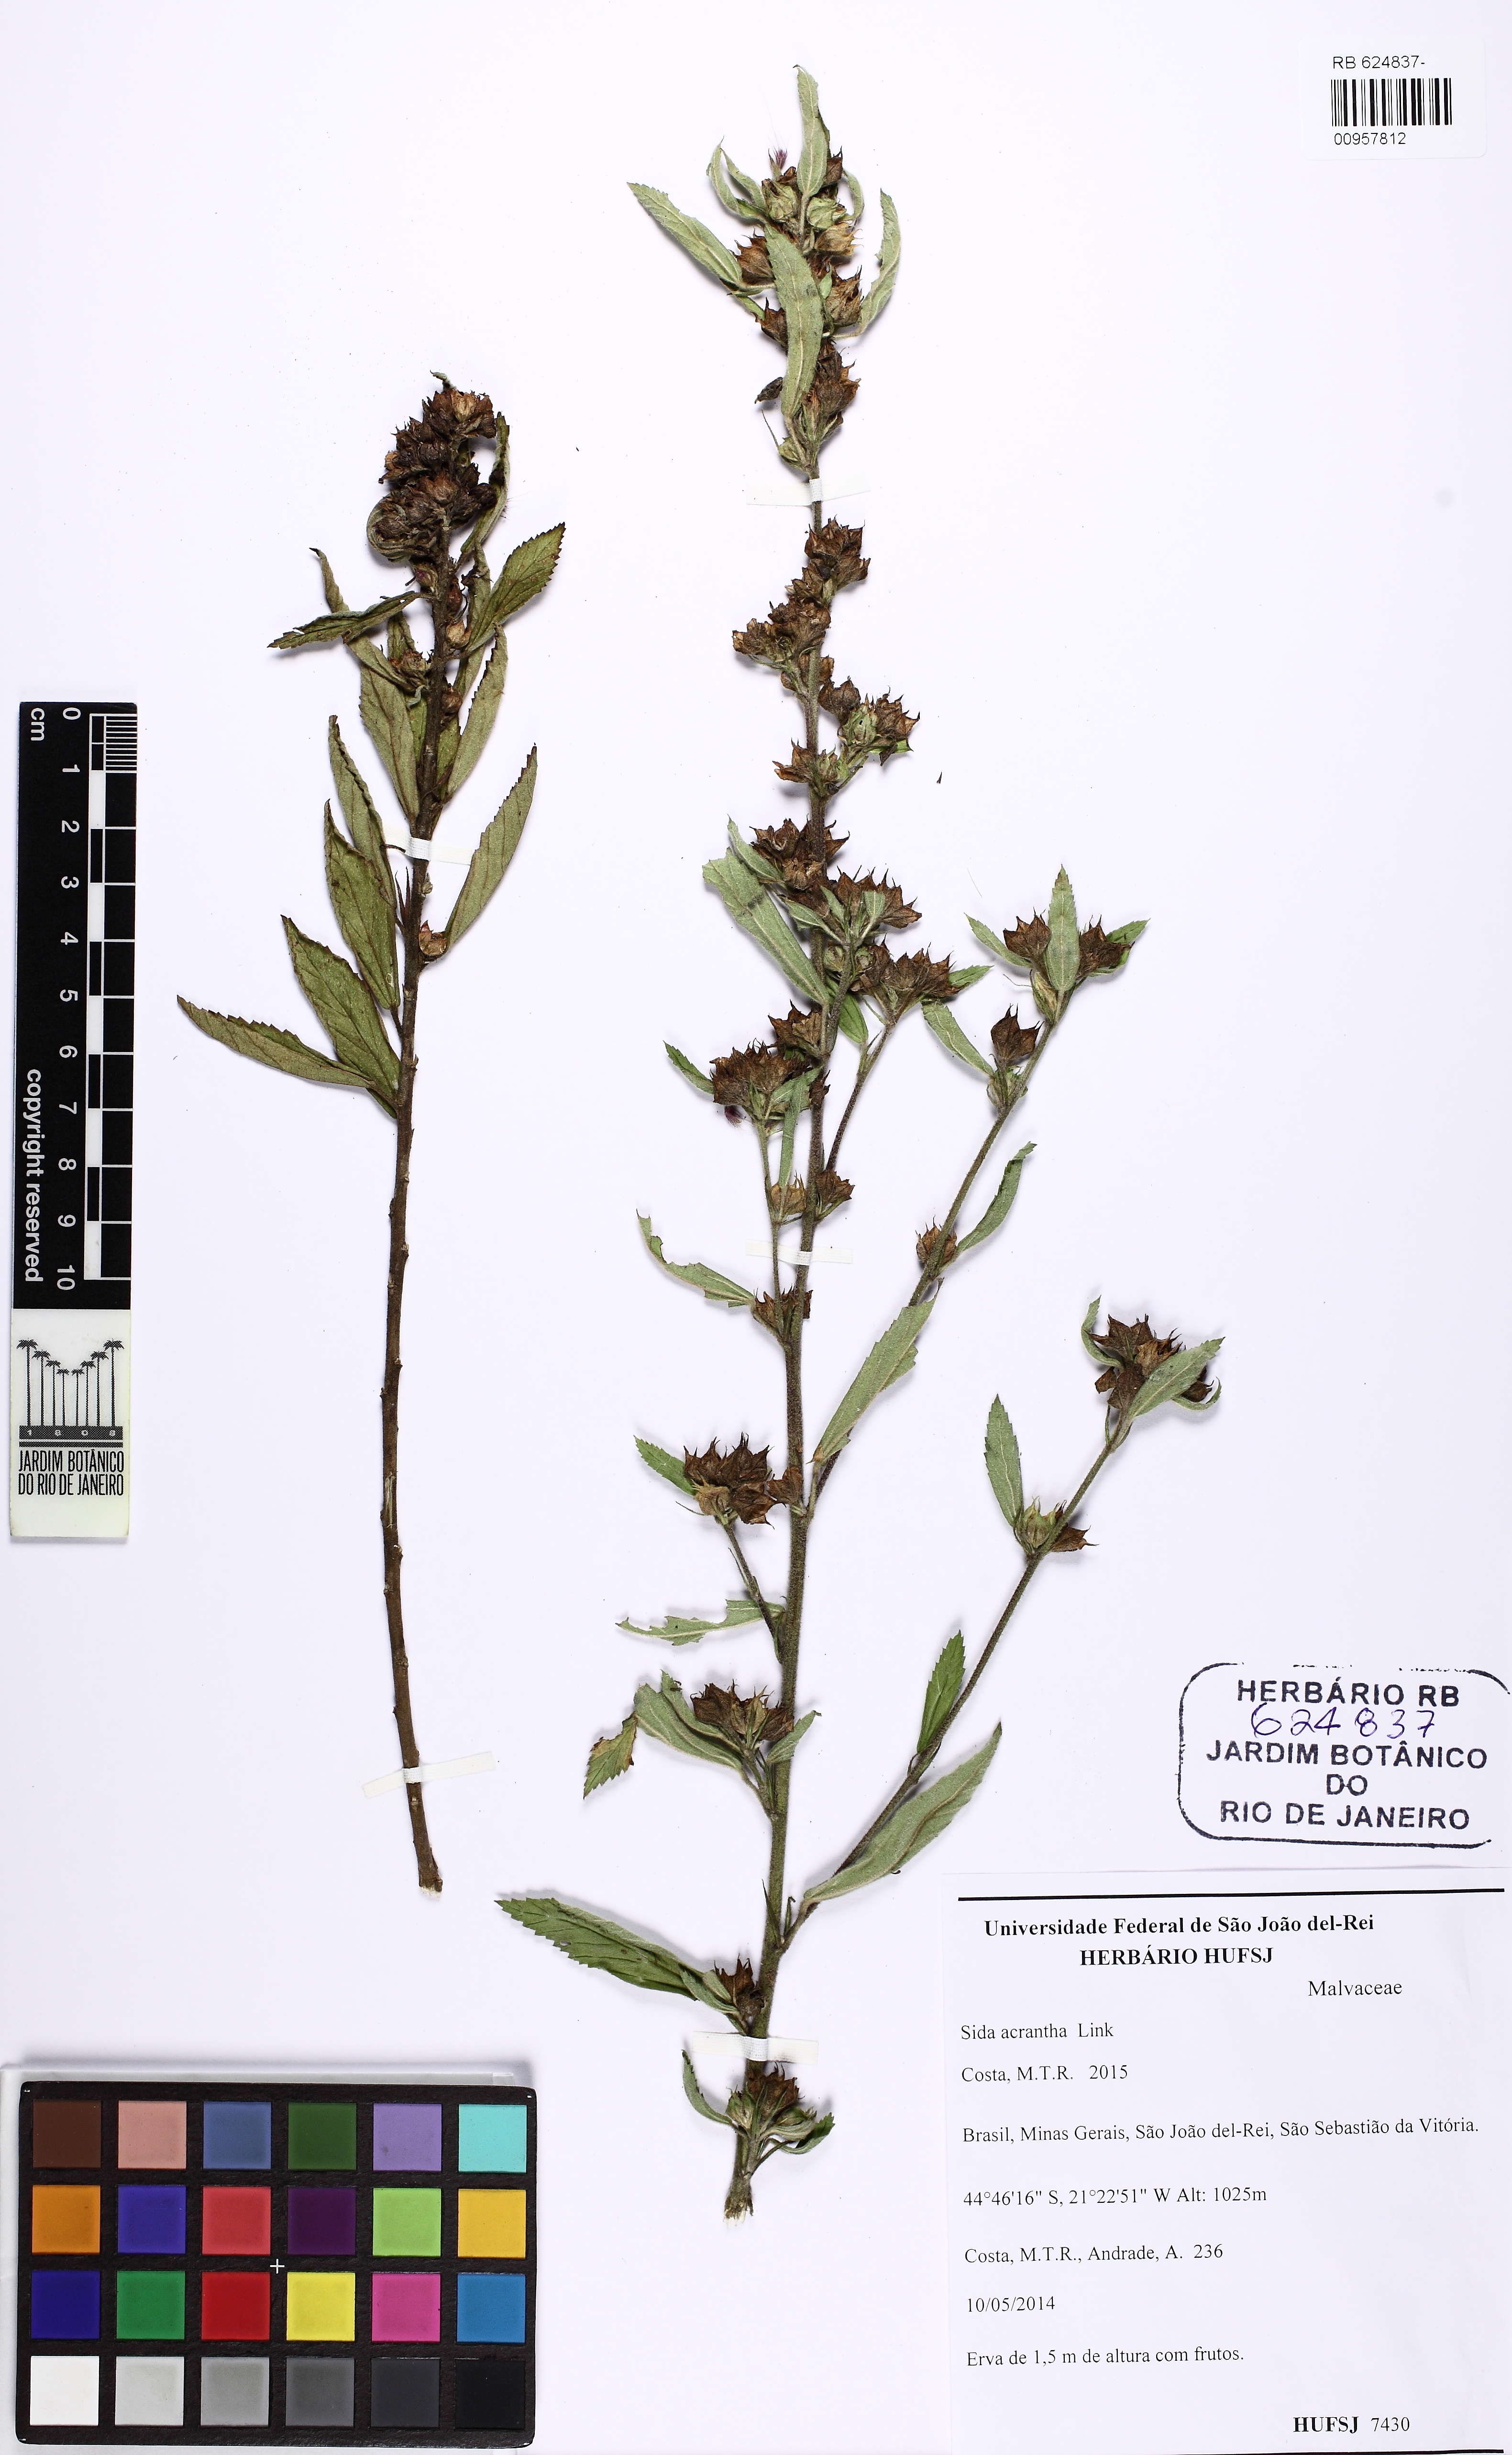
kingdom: Plantae
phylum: Tracheophyta
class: Magnoliopsida
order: Malvales
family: Malvaceae
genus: Sida
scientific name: Sida acrantha
